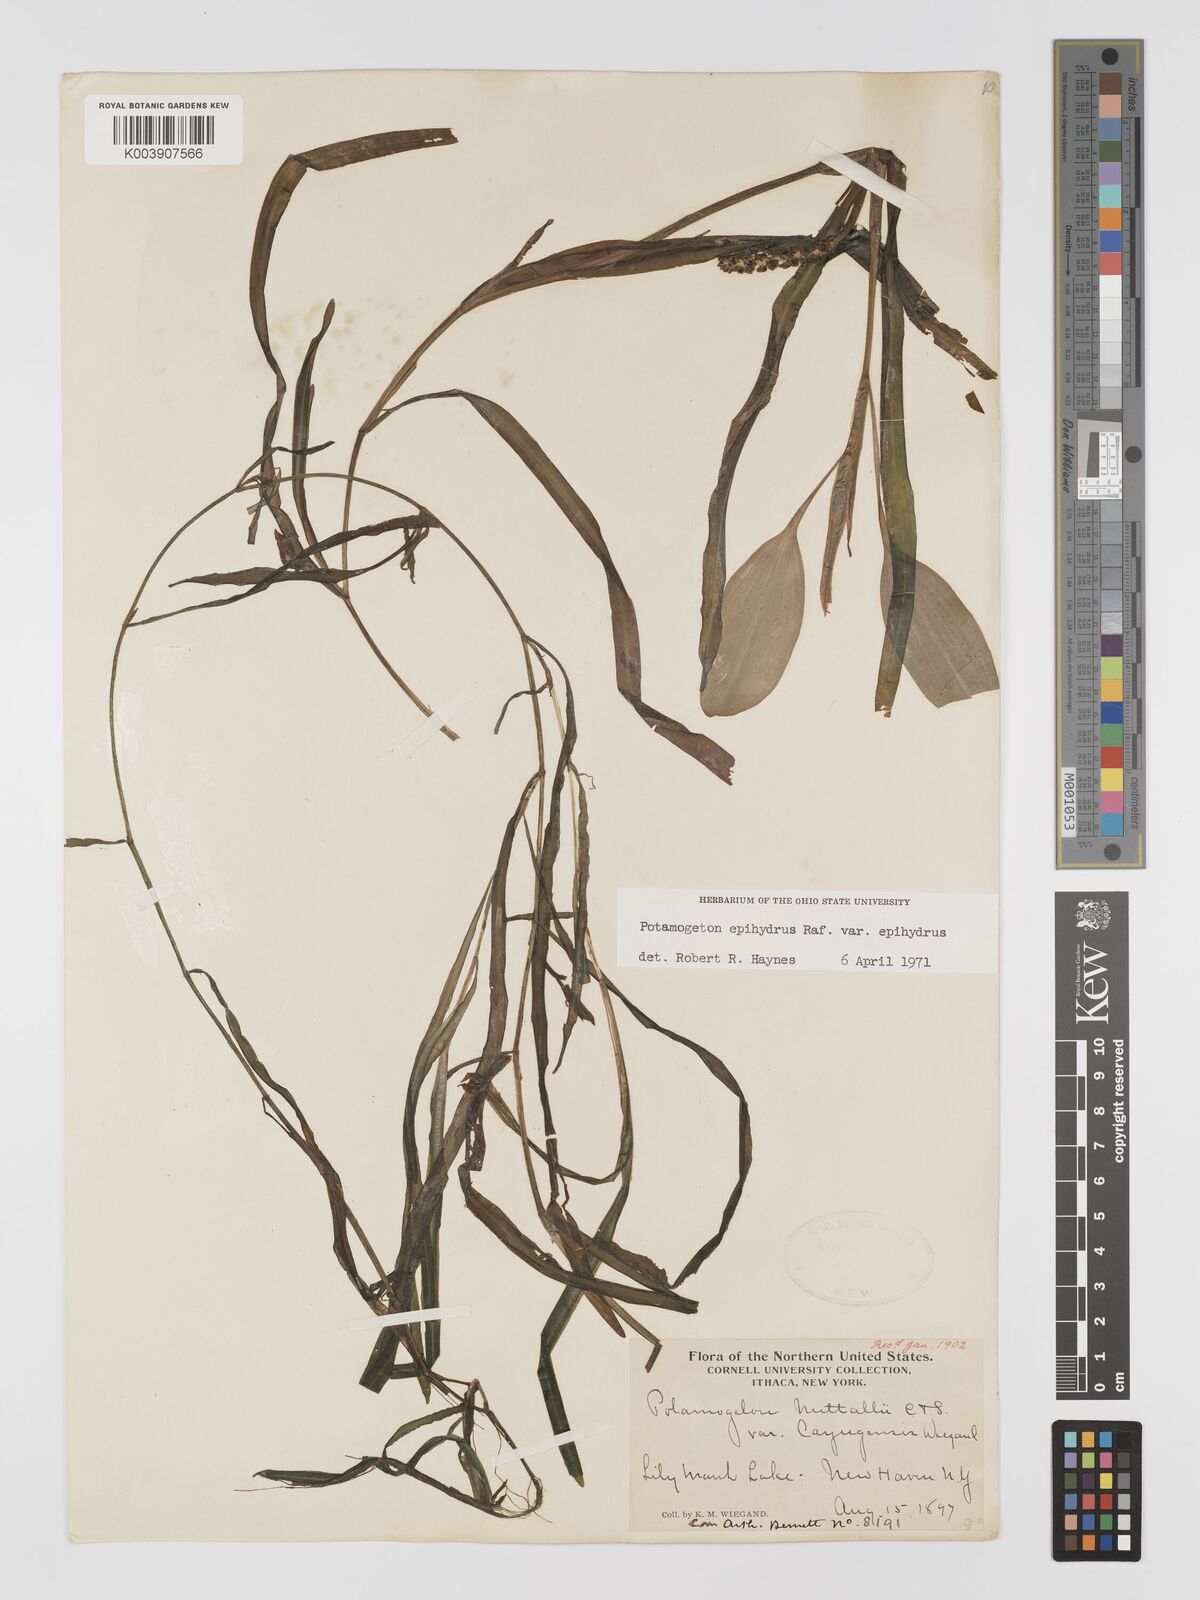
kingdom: Plantae
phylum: Tracheophyta
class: Liliopsida
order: Alismatales
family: Potamogetonaceae
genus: Potamogeton
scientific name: Potamogeton epihydrus
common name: American pondweed
